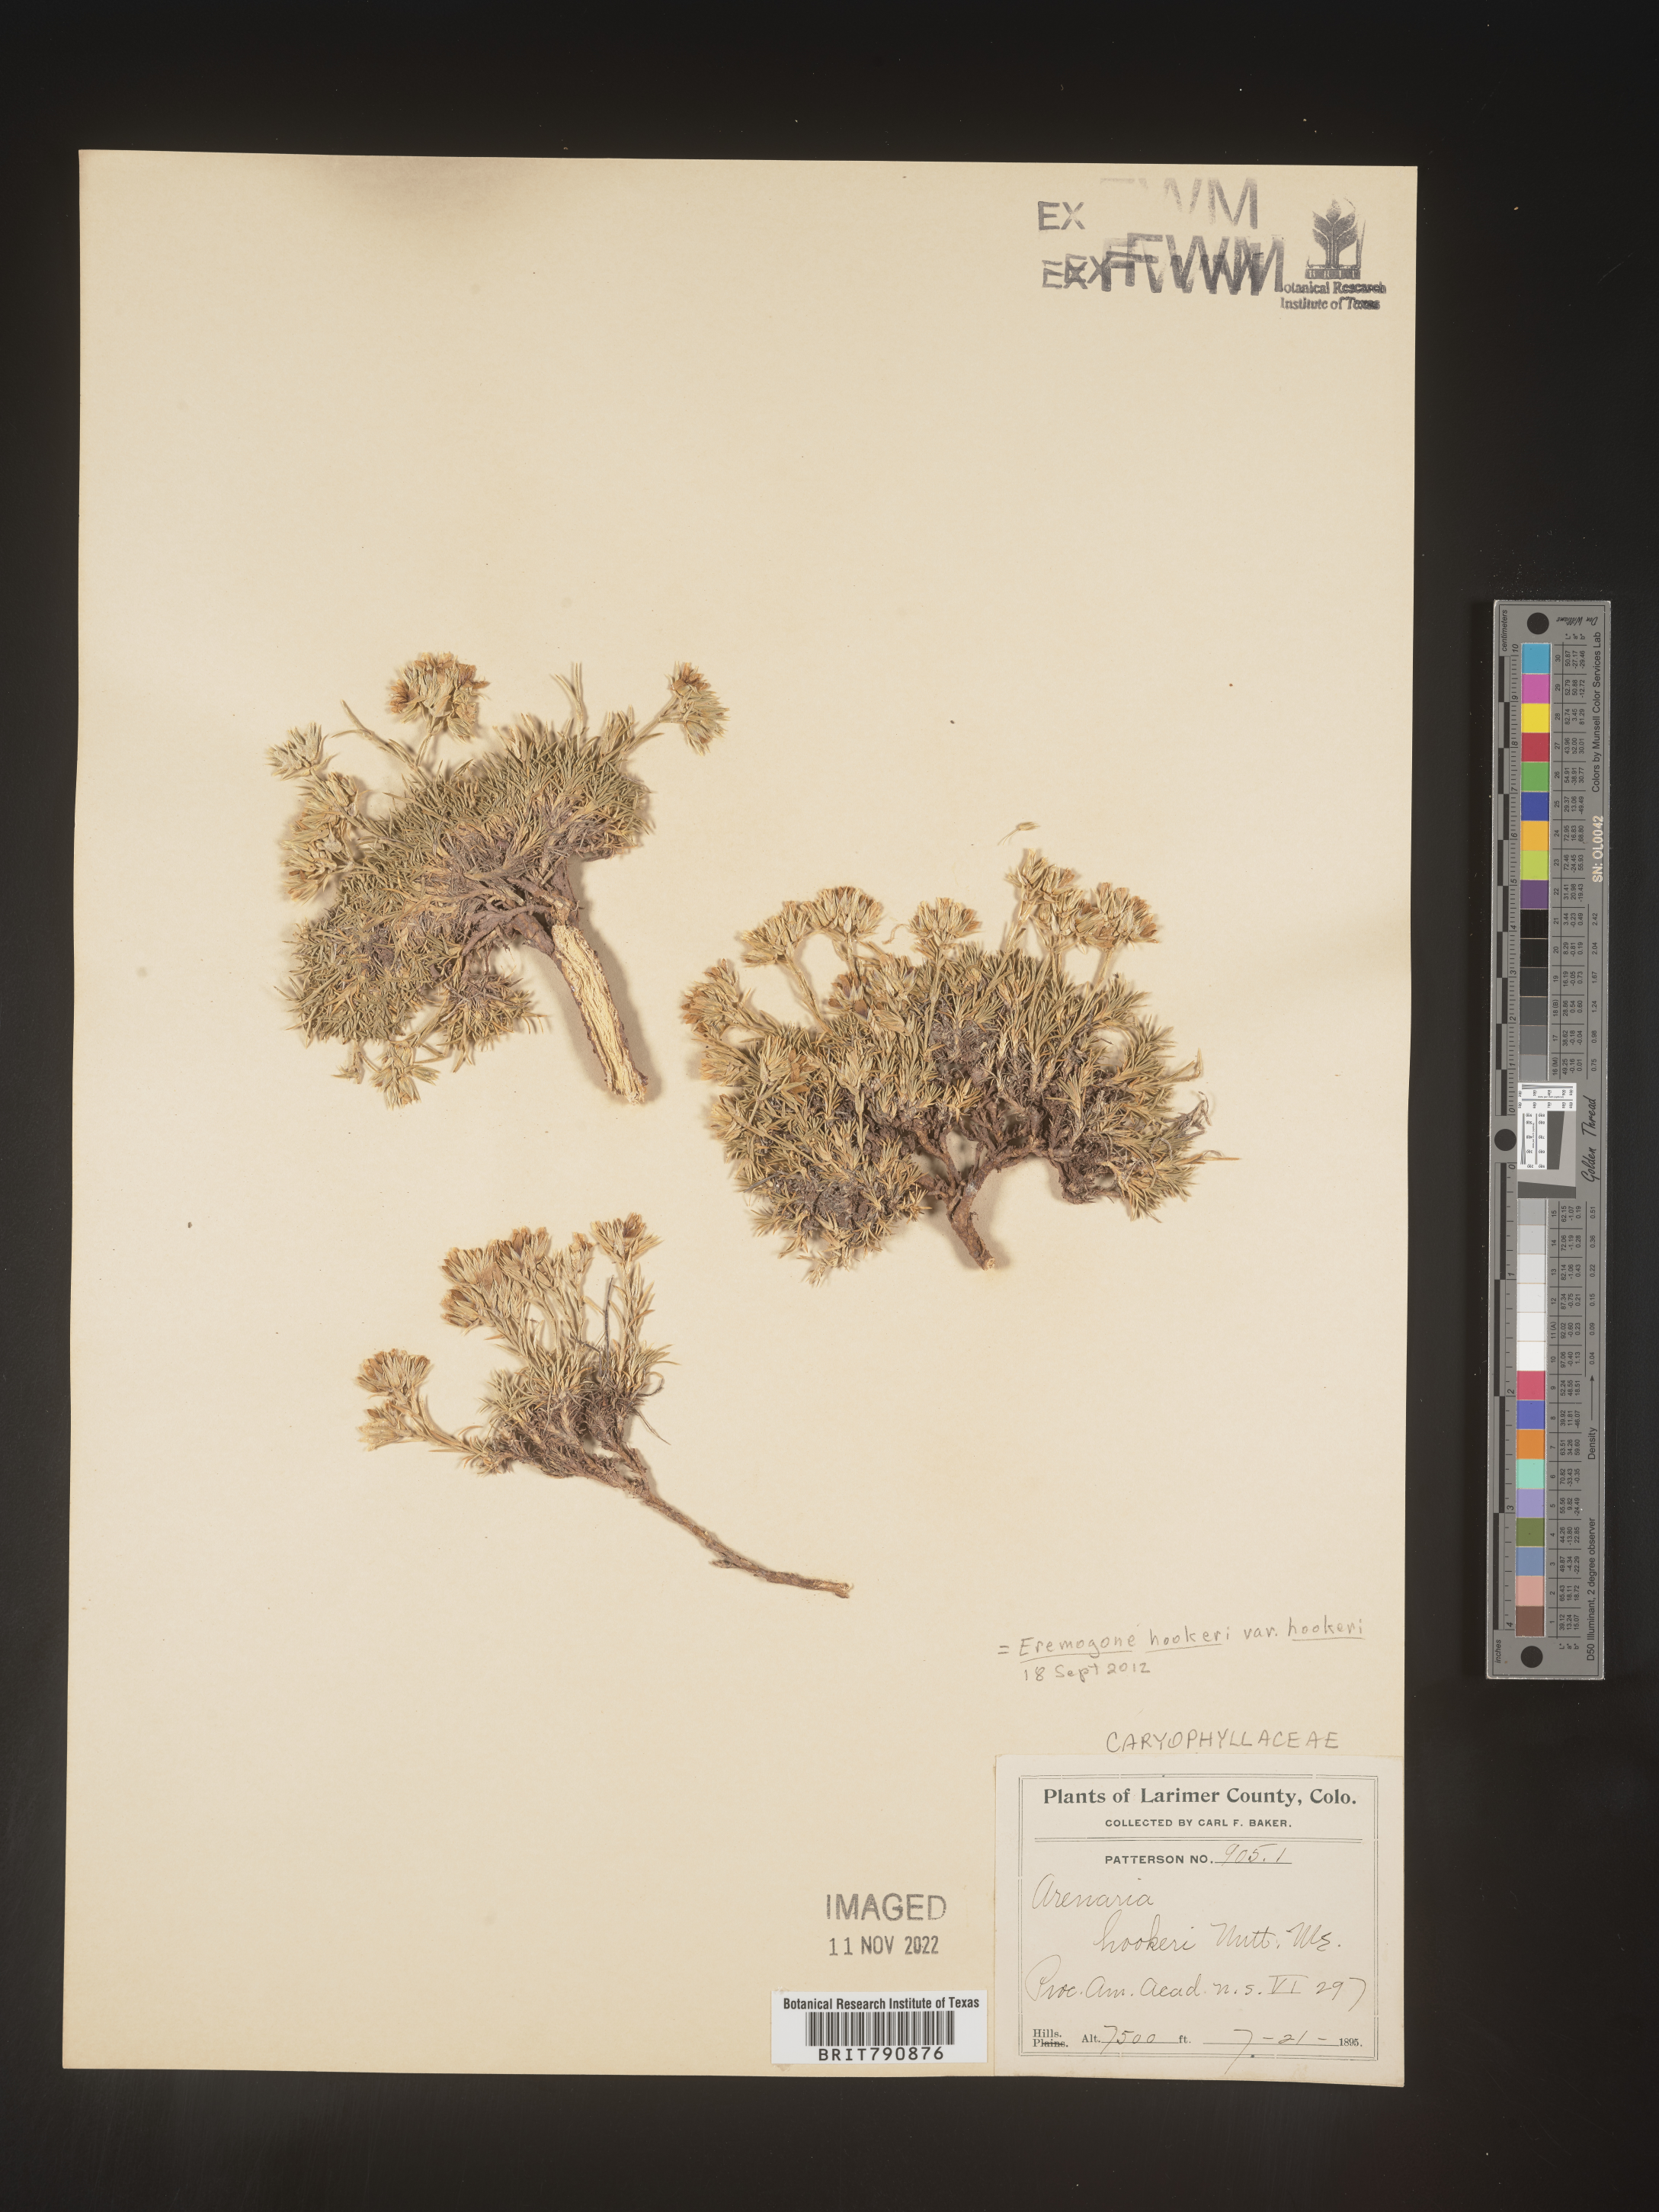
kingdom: Plantae
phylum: Tracheophyta
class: Magnoliopsida
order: Caryophyllales
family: Caryophyllaceae
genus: Eremogone
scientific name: Eremogone
